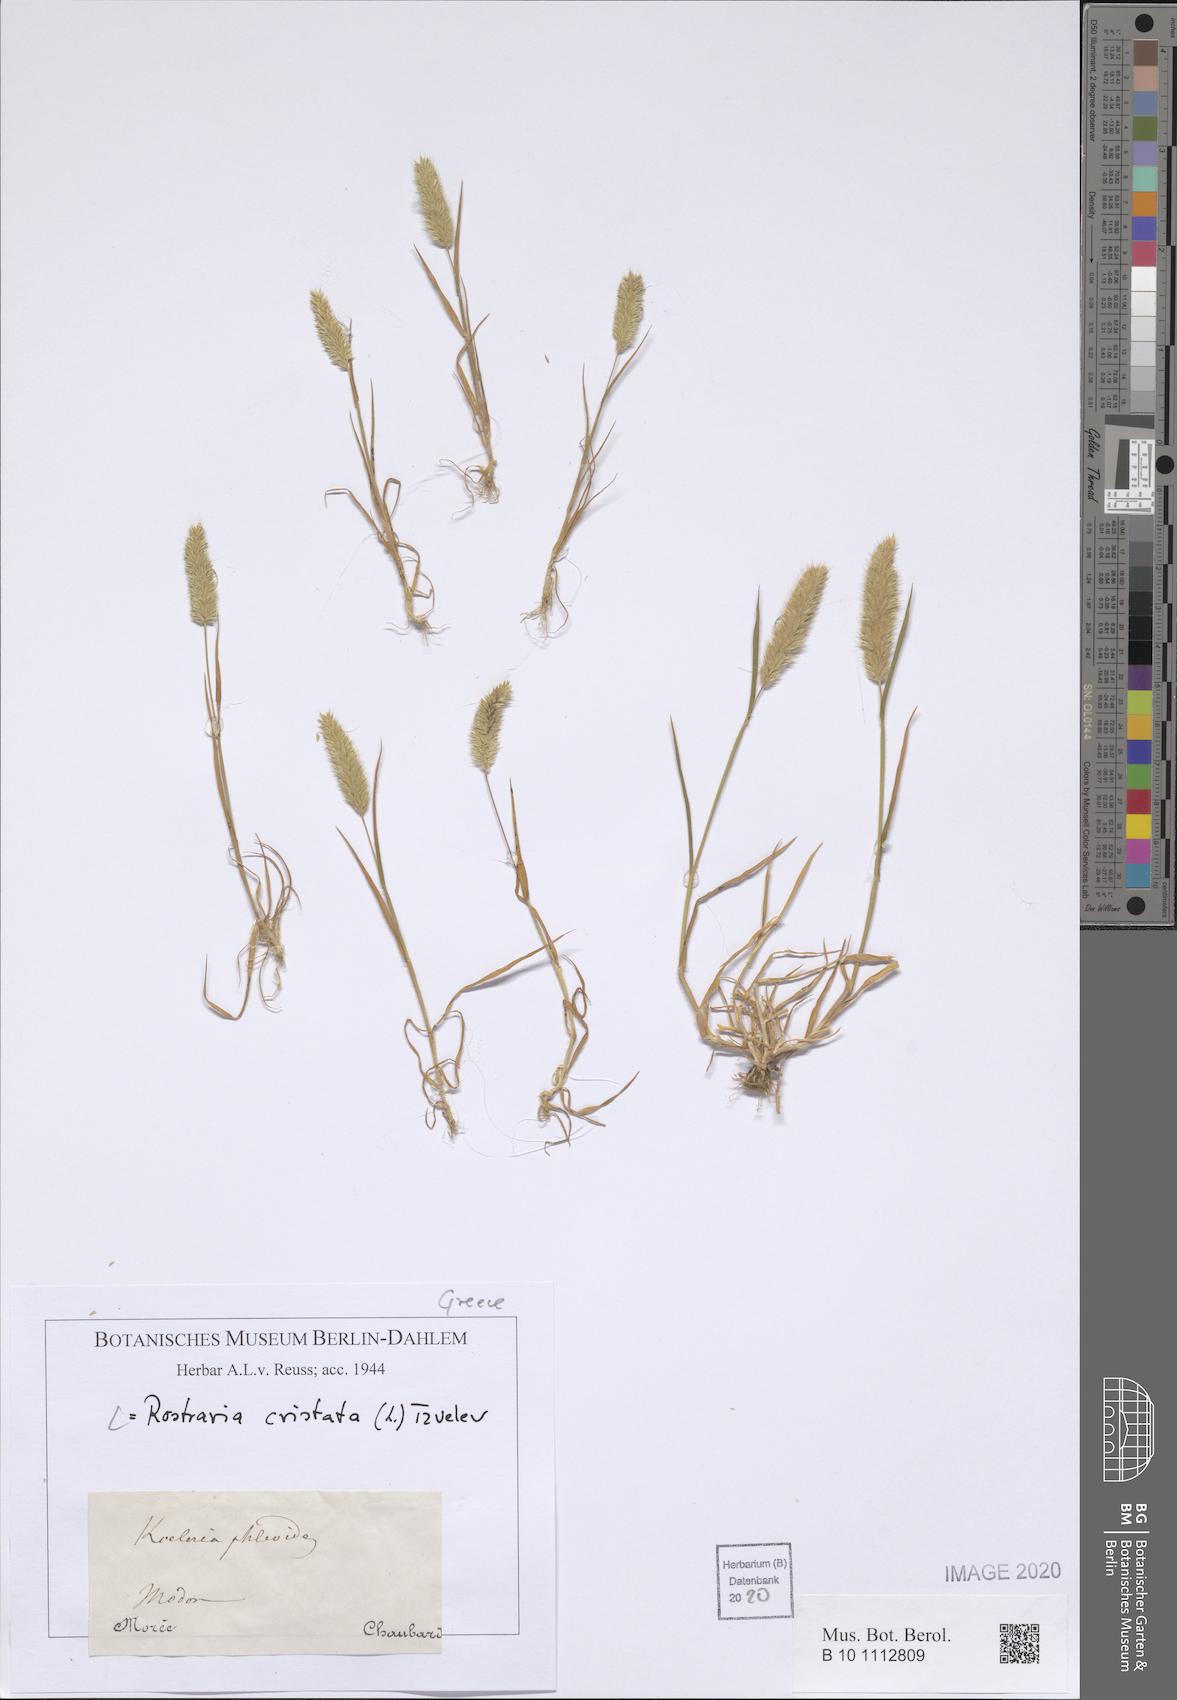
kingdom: Plantae
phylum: Tracheophyta
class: Liliopsida
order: Poales
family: Poaceae
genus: Rostraria
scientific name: Rostraria cristata
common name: Mediterranean hair-grass
